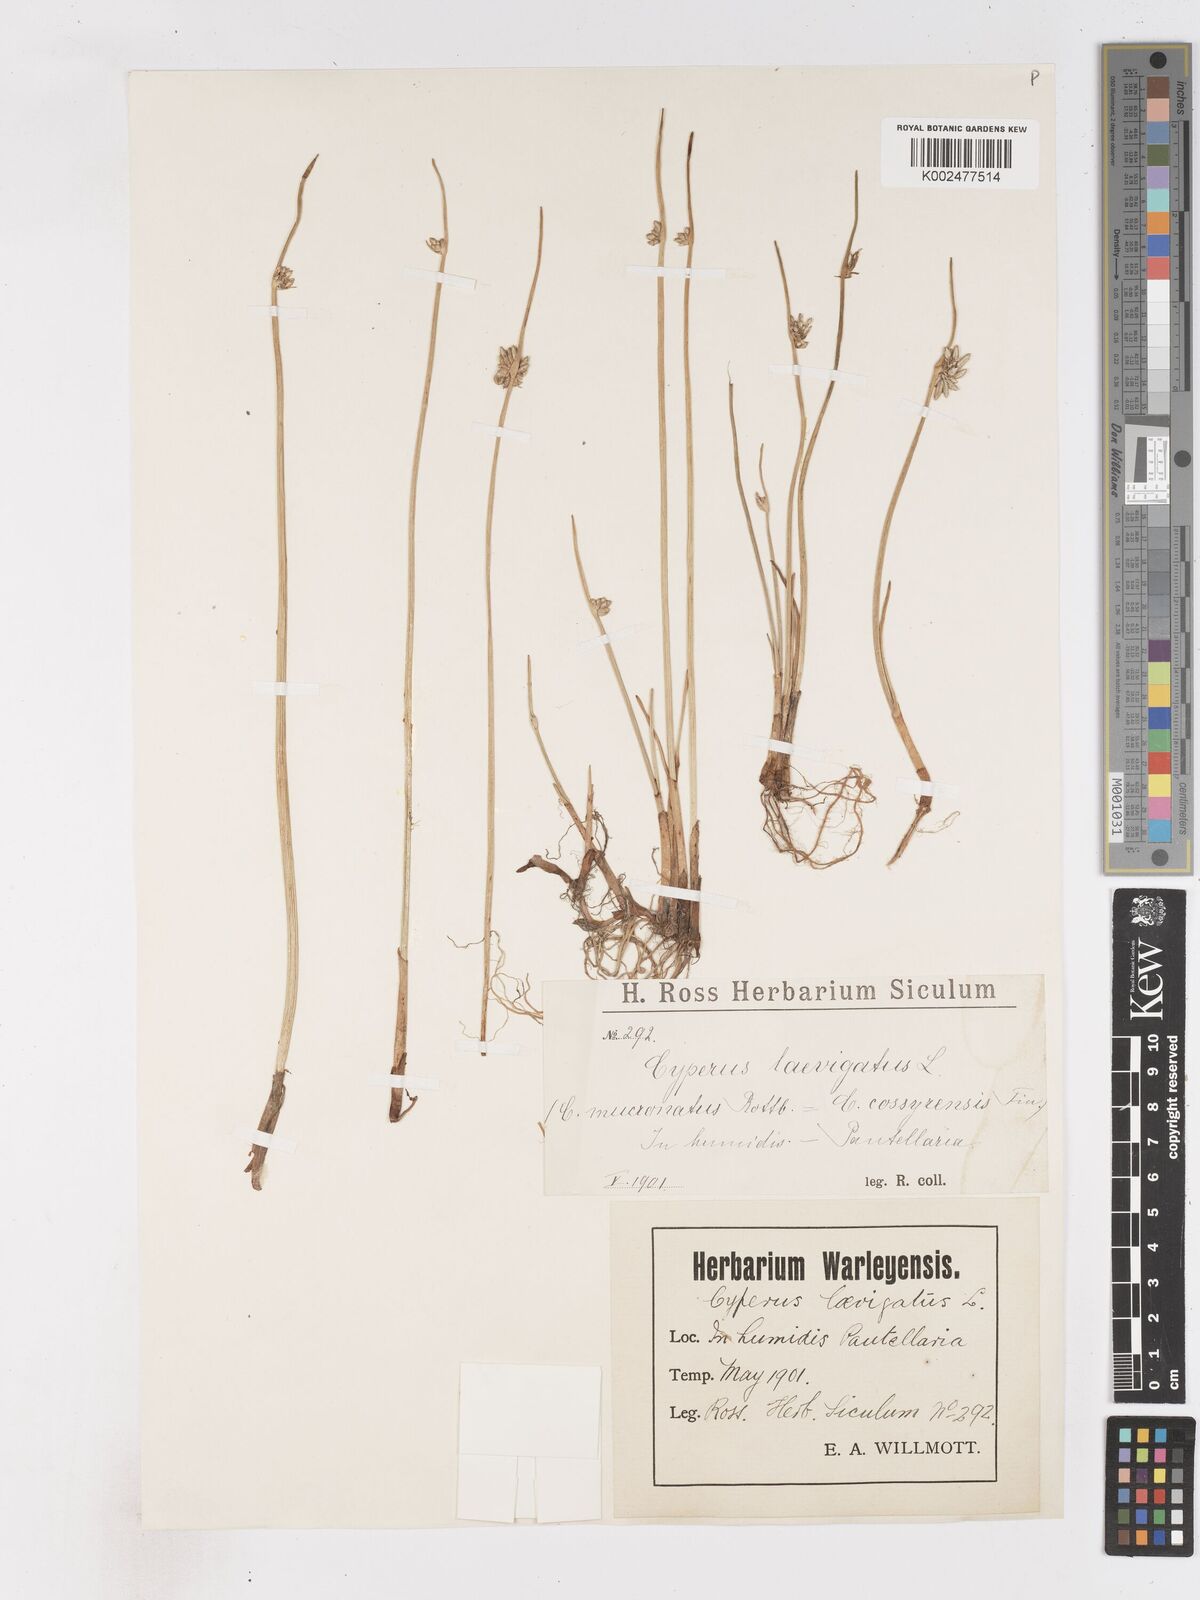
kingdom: Plantae
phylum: Tracheophyta
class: Liliopsida
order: Poales
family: Cyperaceae
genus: Cyperus
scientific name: Cyperus laevigatus
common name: Smooth flat sedge
